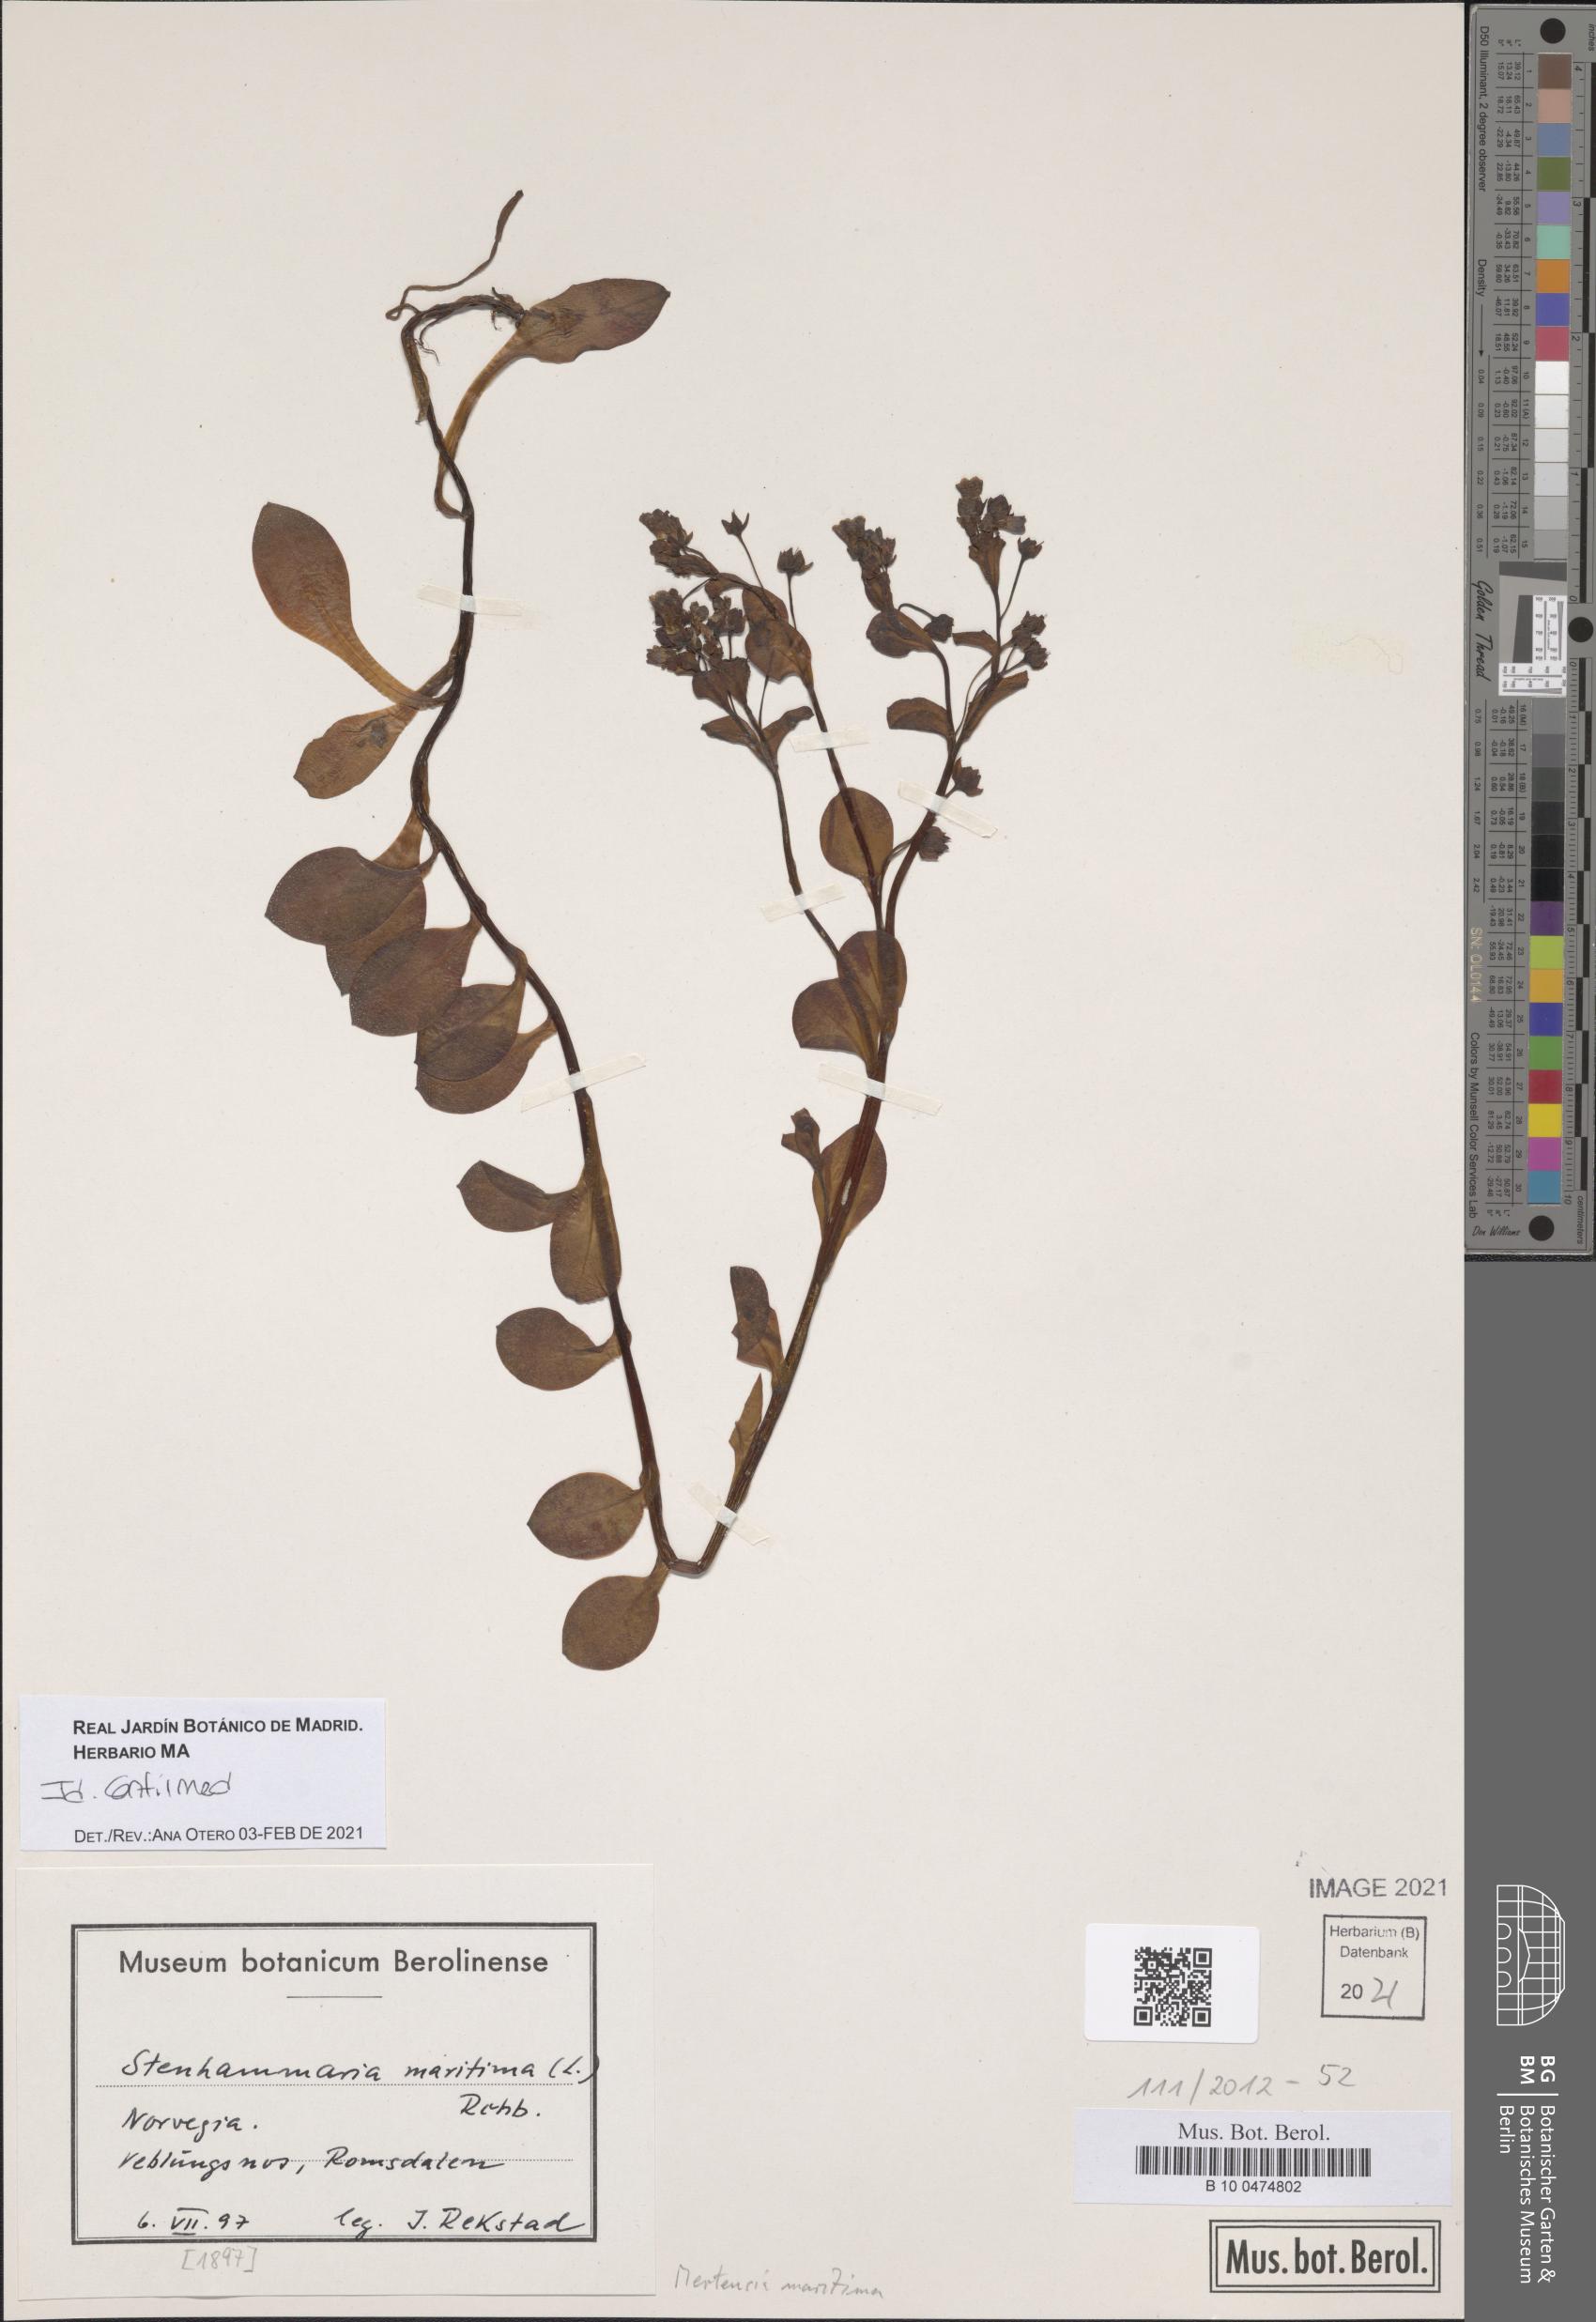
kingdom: Plantae
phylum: Tracheophyta
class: Magnoliopsida
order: Boraginales
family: Boraginaceae
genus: Mertensia
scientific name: Mertensia maritima
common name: Oysterplant
